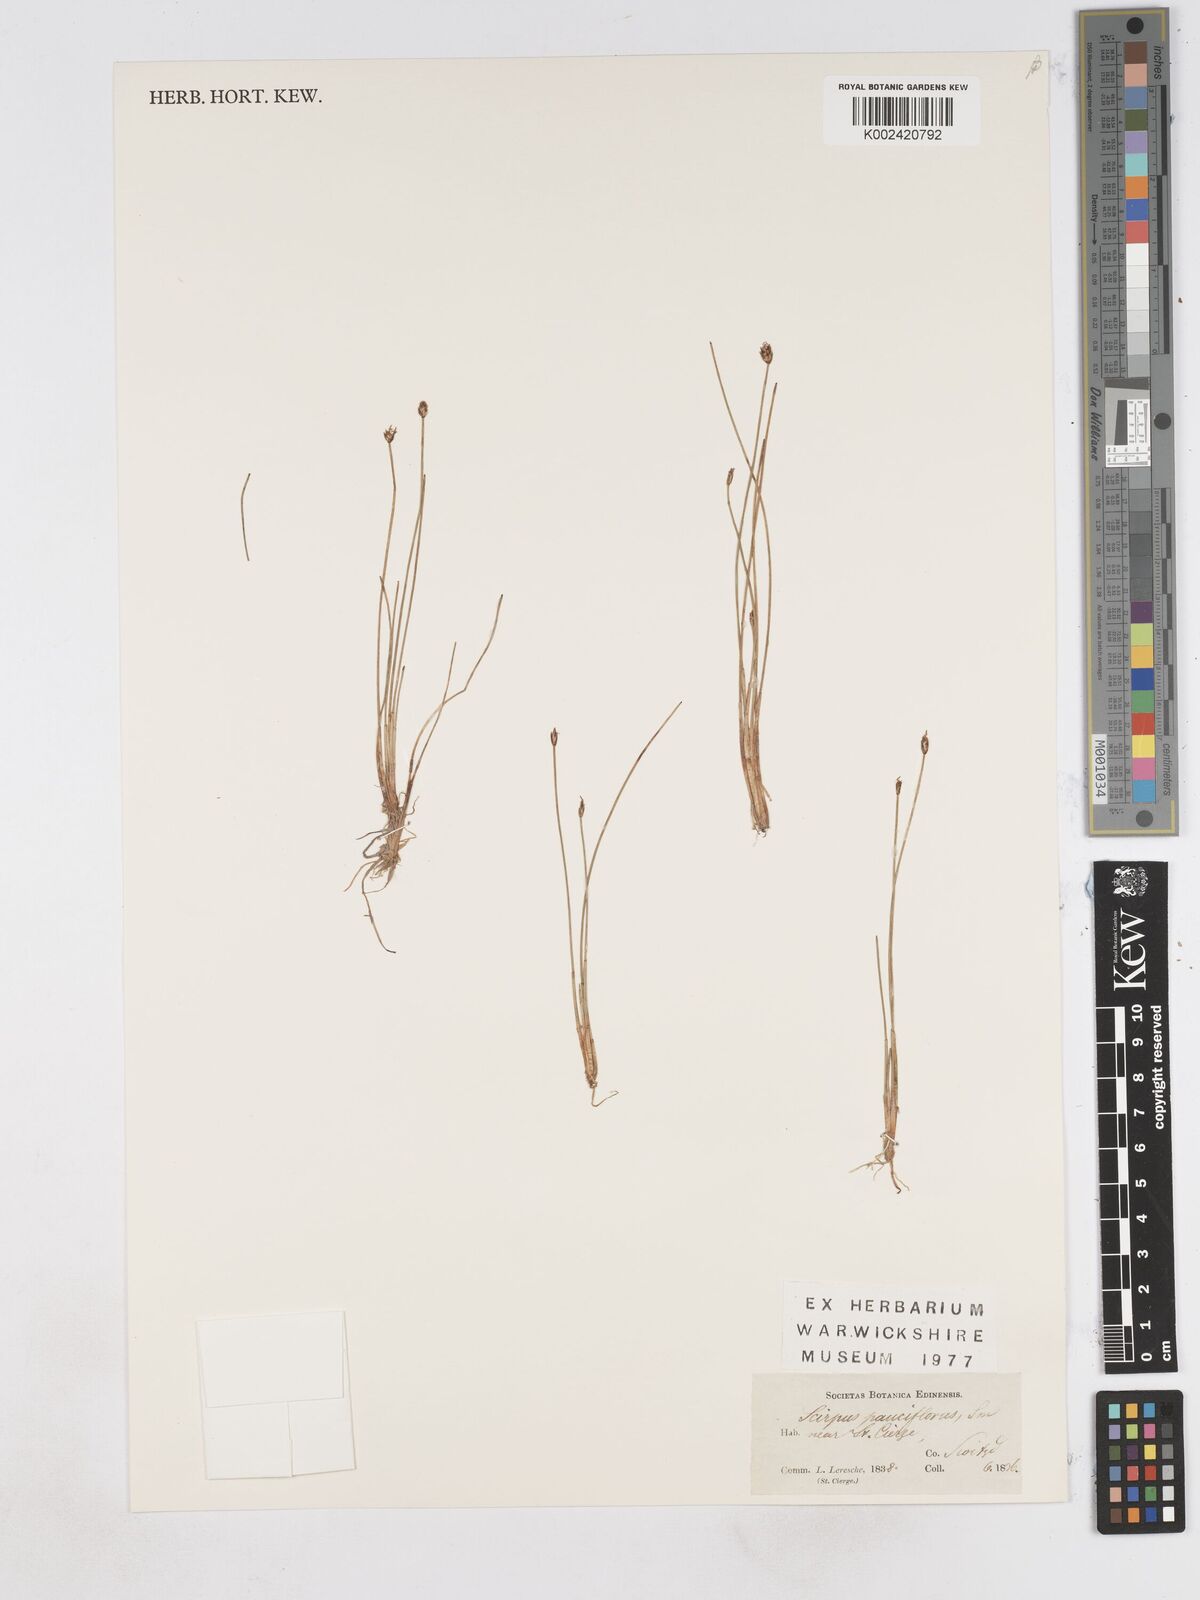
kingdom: Plantae
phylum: Tracheophyta
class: Liliopsida
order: Poales
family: Cyperaceae
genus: Eleocharis
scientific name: Eleocharis quinqueflora
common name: Few-flowered spike-rush
